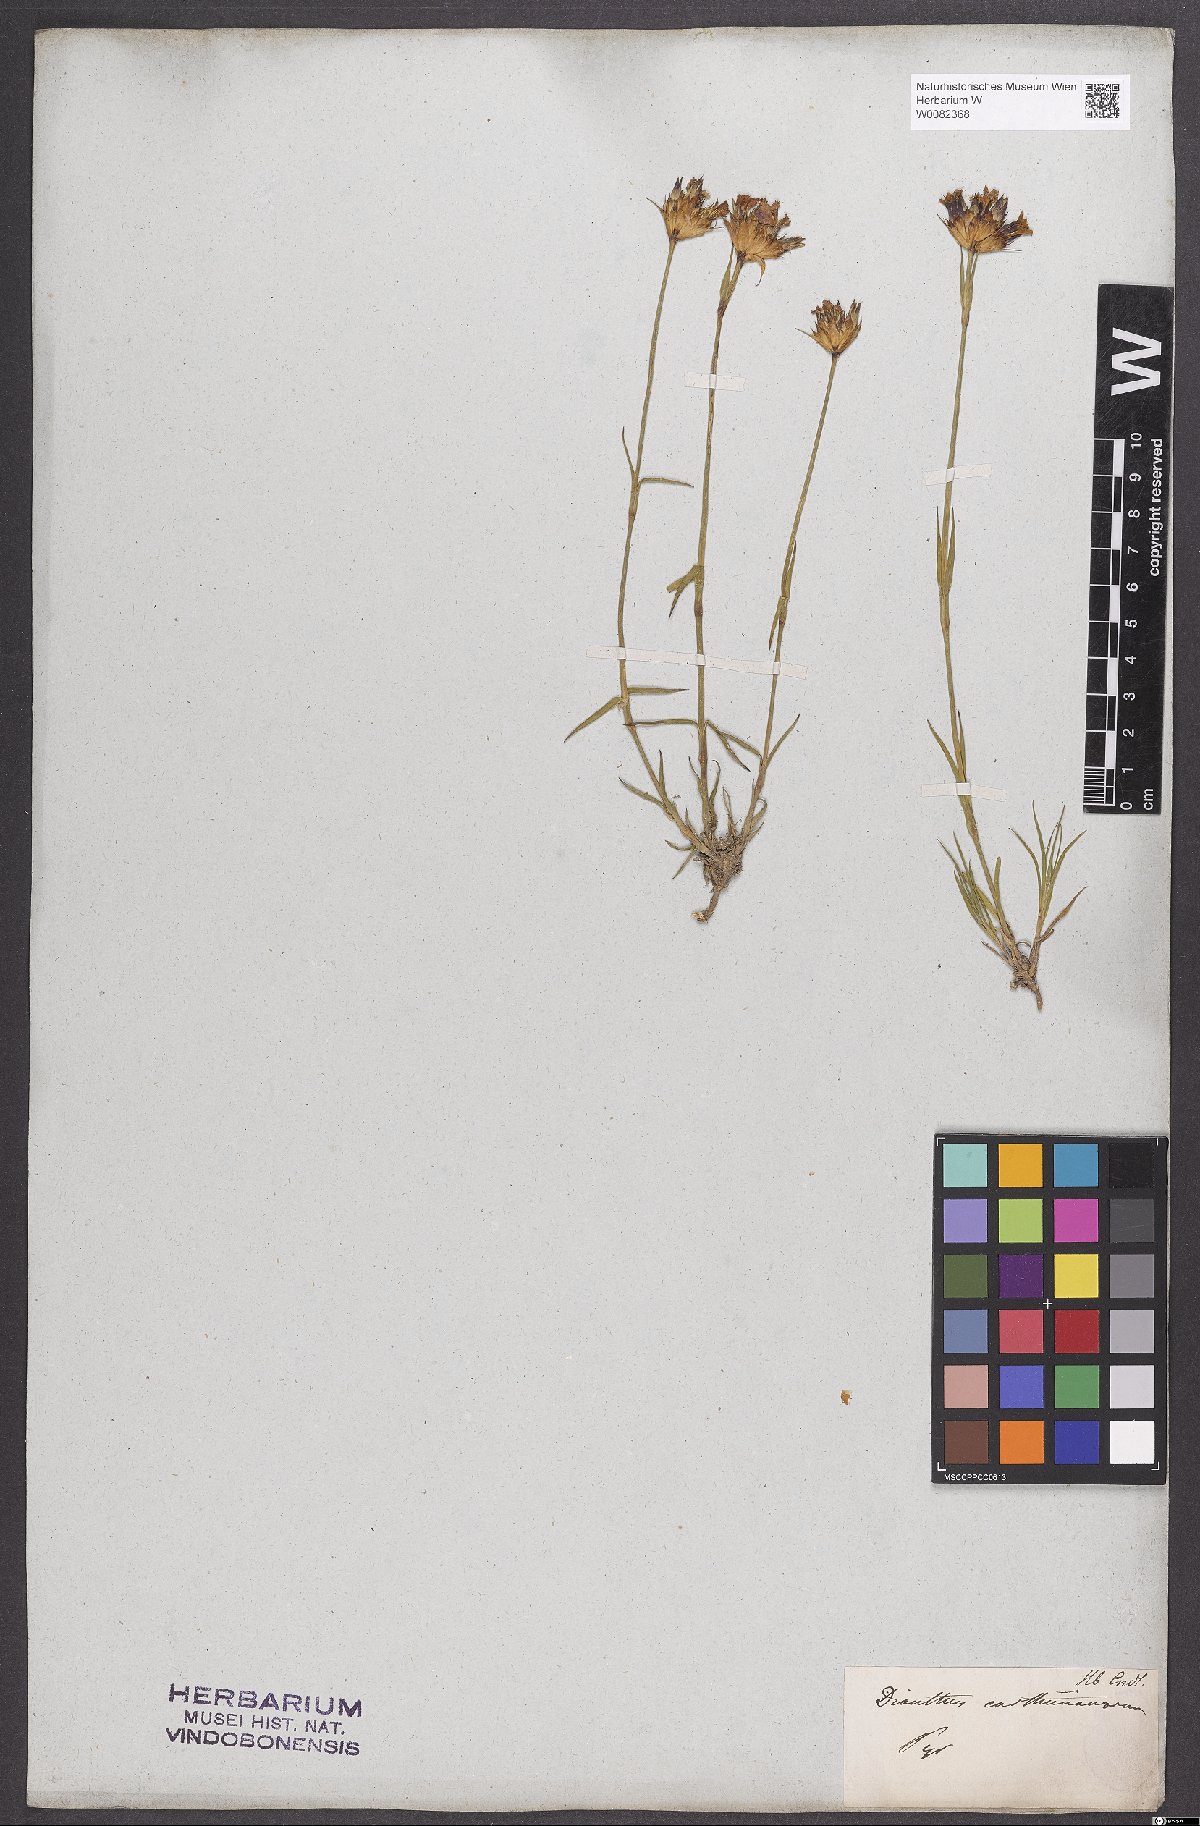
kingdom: Plantae
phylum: Tracheophyta
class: Magnoliopsida
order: Caryophyllales
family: Caryophyllaceae
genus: Dianthus
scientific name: Dianthus carthusianorum
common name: Carthusian pink
